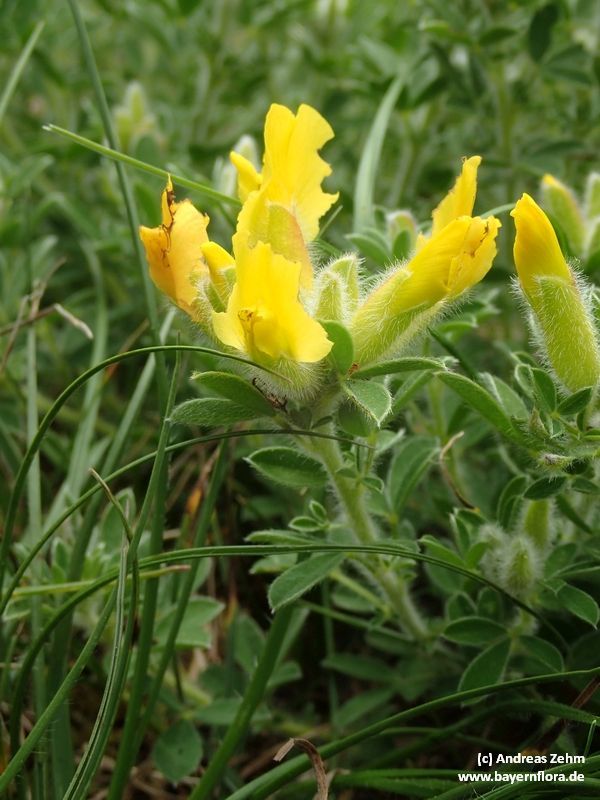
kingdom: Plantae
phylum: Tracheophyta
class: Magnoliopsida
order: Fabales
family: Fabaceae
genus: Chamaecytisus
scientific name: Chamaecytisus supinus
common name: Clustered broom
